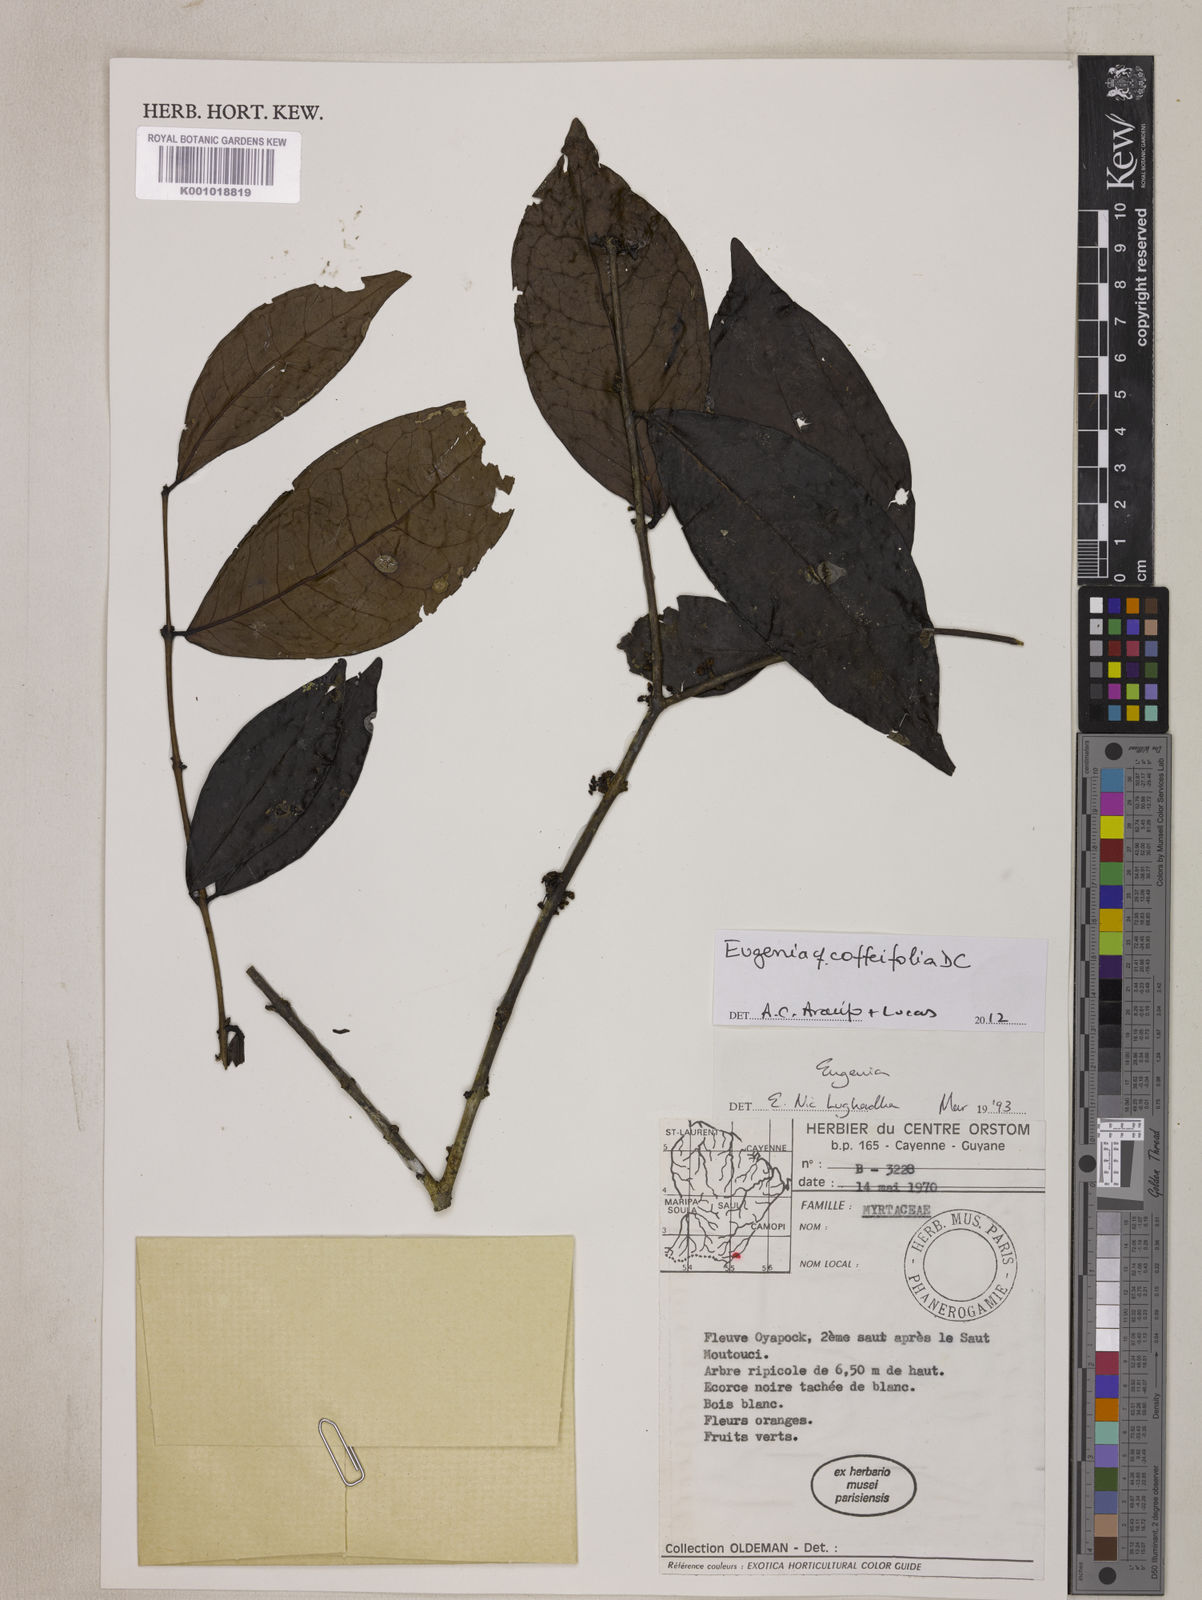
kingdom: Plantae
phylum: Tracheophyta
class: Magnoliopsida
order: Myrtales
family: Myrtaceae
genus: Eugenia
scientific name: Eugenia coffeifolia
